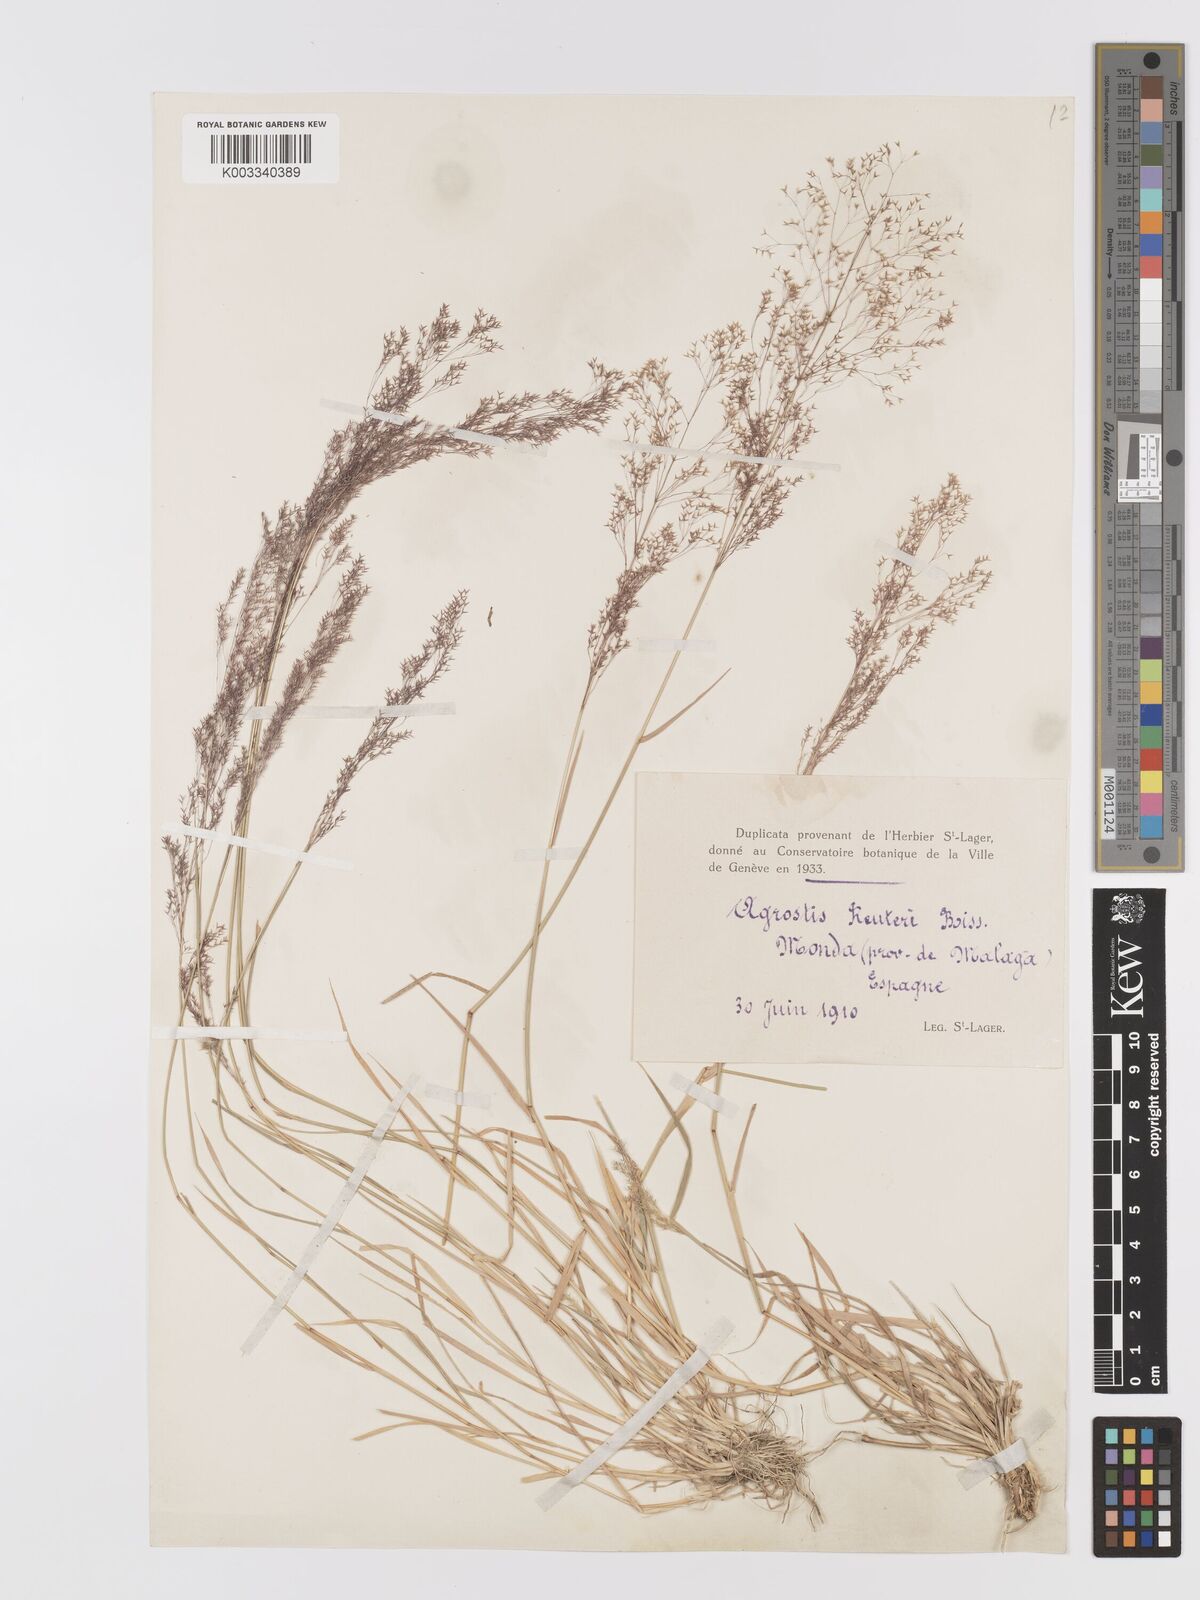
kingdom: Plantae
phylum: Tracheophyta
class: Liliopsida
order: Poales
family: Poaceae
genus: Agrostis
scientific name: Agrostis reuteri
